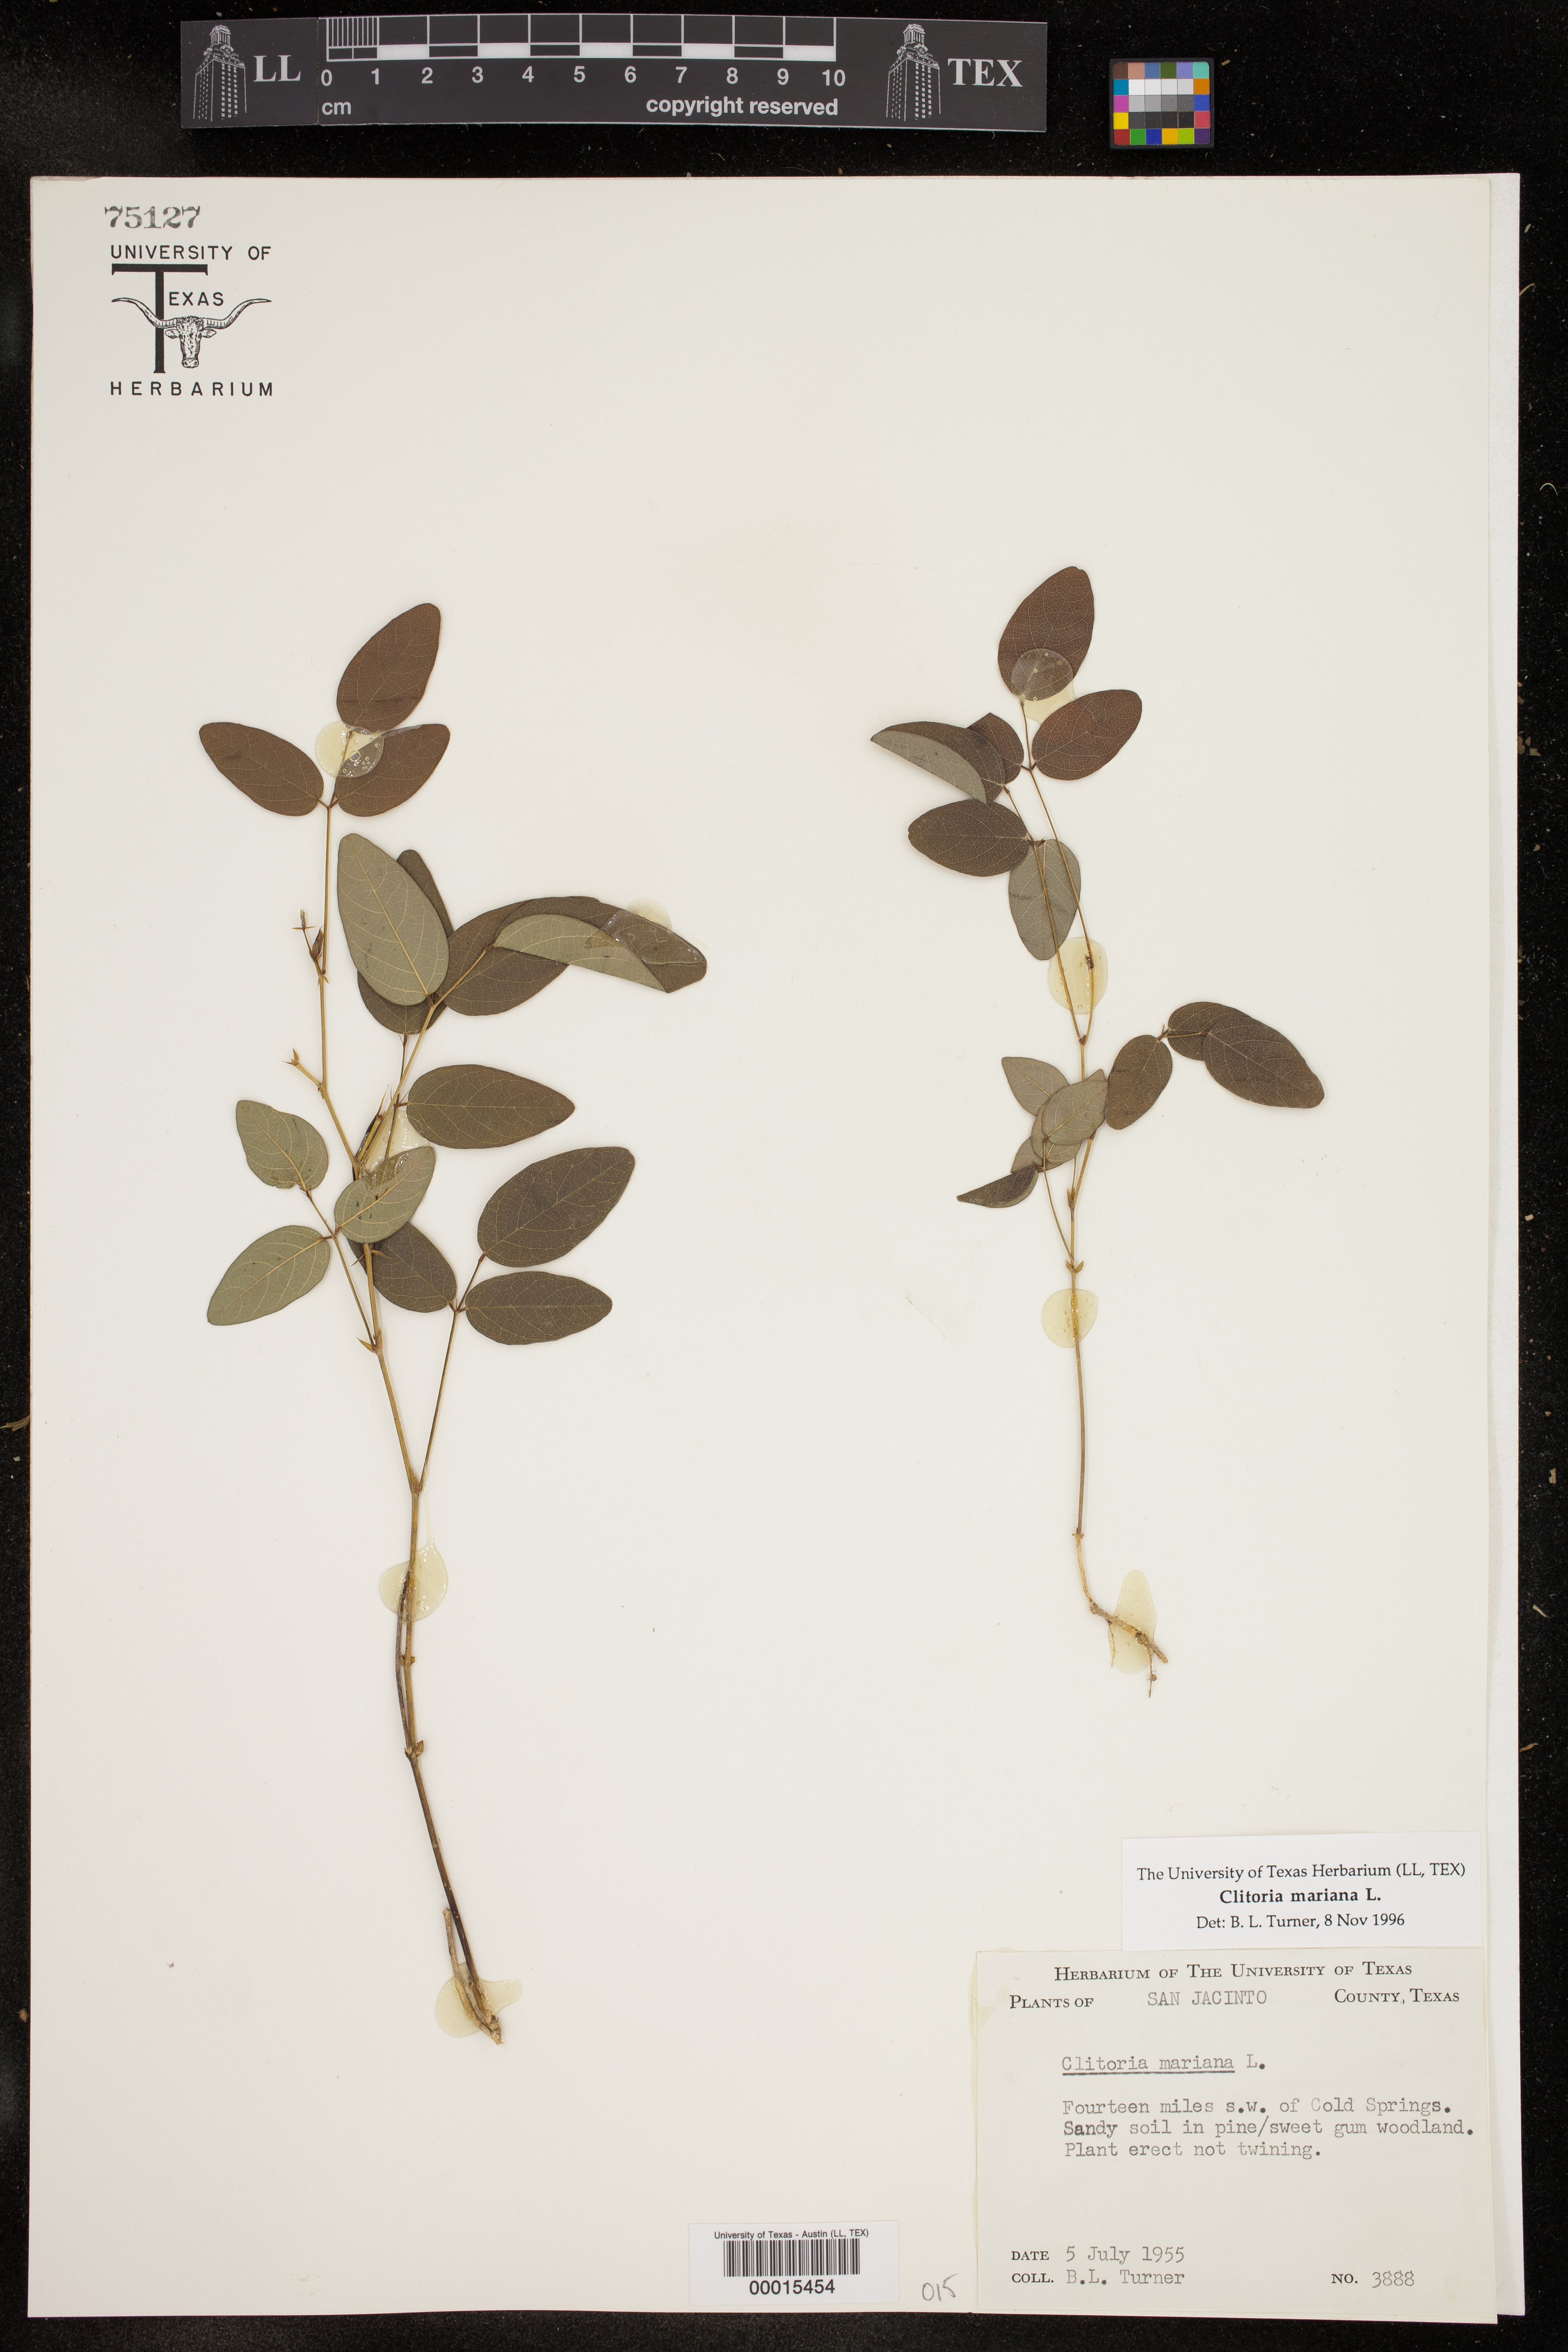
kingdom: Plantae
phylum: Tracheophyta
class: Magnoliopsida
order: Fabales
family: Fabaceae
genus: Clitoria
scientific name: Clitoria mariana
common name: Butterfly-pea
